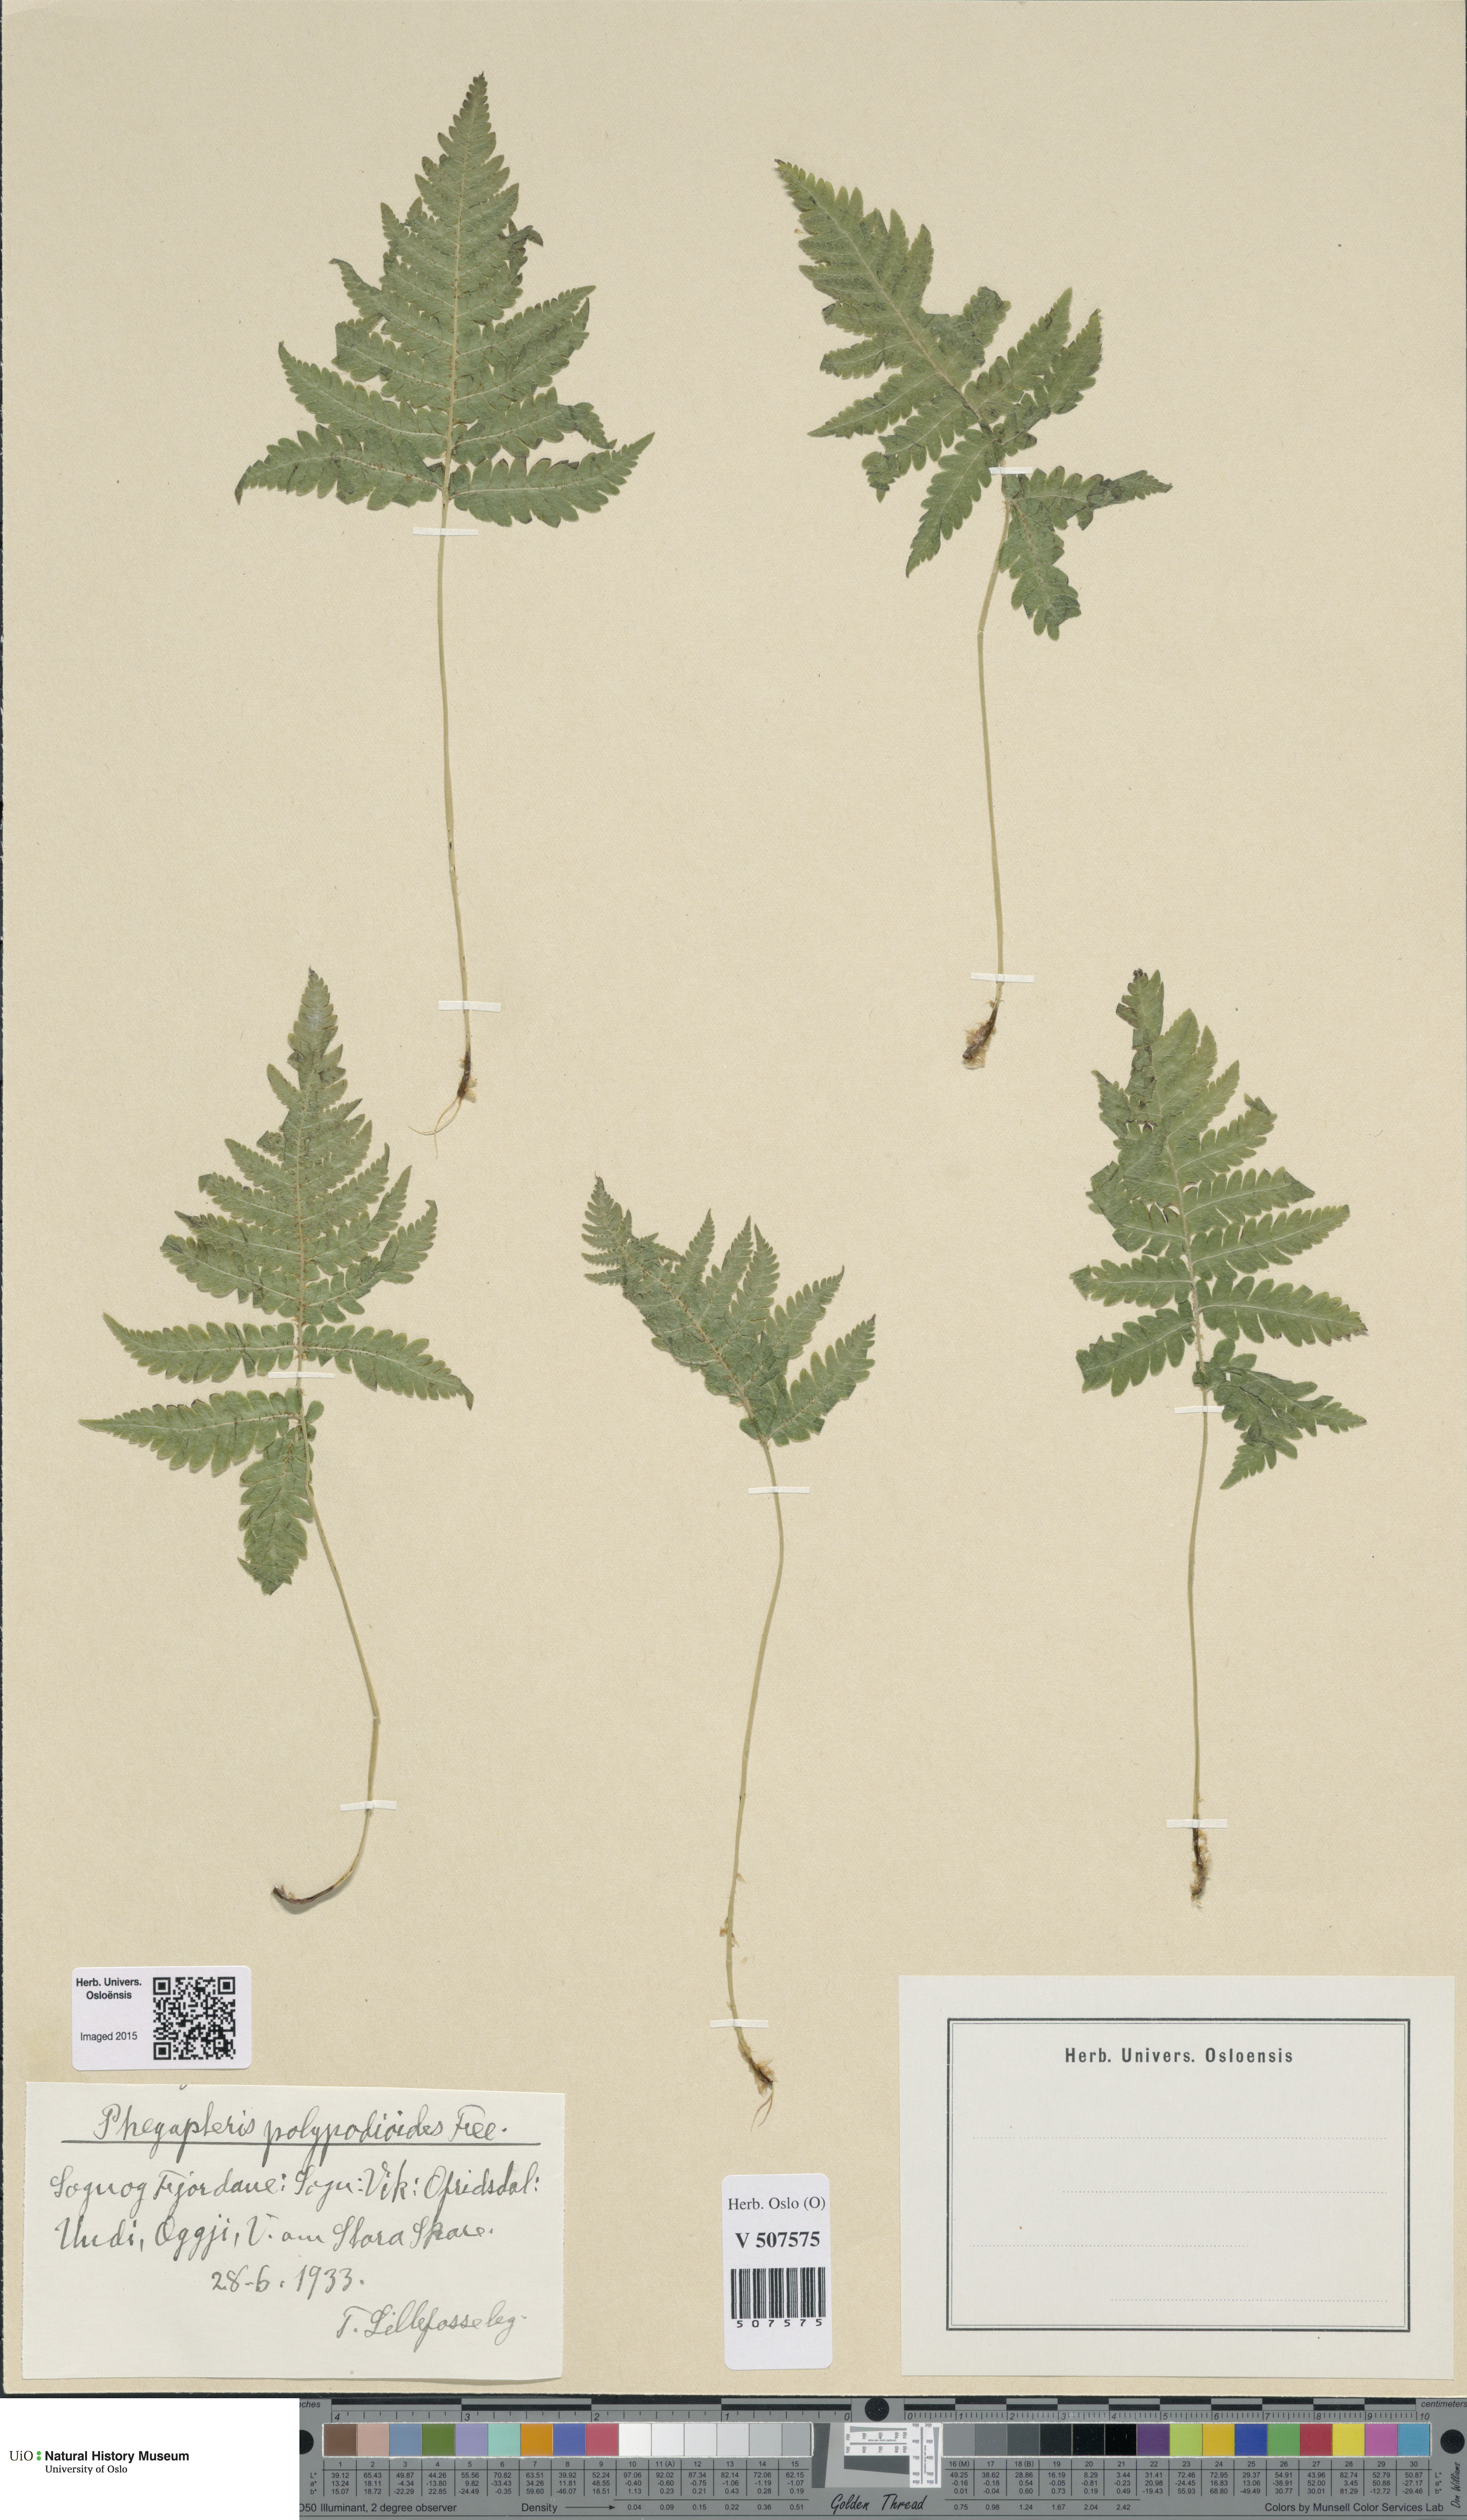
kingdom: Plantae
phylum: Tracheophyta
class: Polypodiopsida
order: Polypodiales
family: Thelypteridaceae
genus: Phegopteris
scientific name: Phegopteris connectilis
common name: Beech fern
